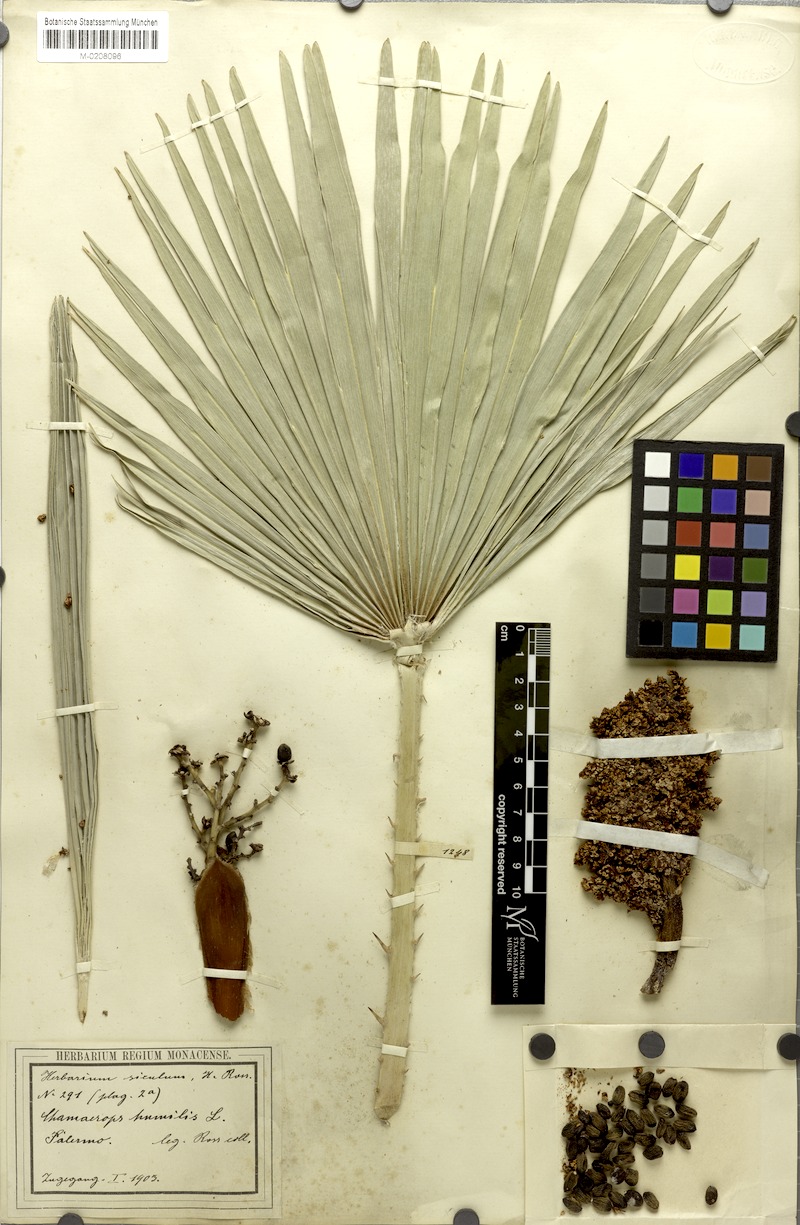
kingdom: Plantae
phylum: Tracheophyta
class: Liliopsida
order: Arecales
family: Arecaceae
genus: Chamaerops
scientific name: Chamaerops humilis
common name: Dwarf fan palm
